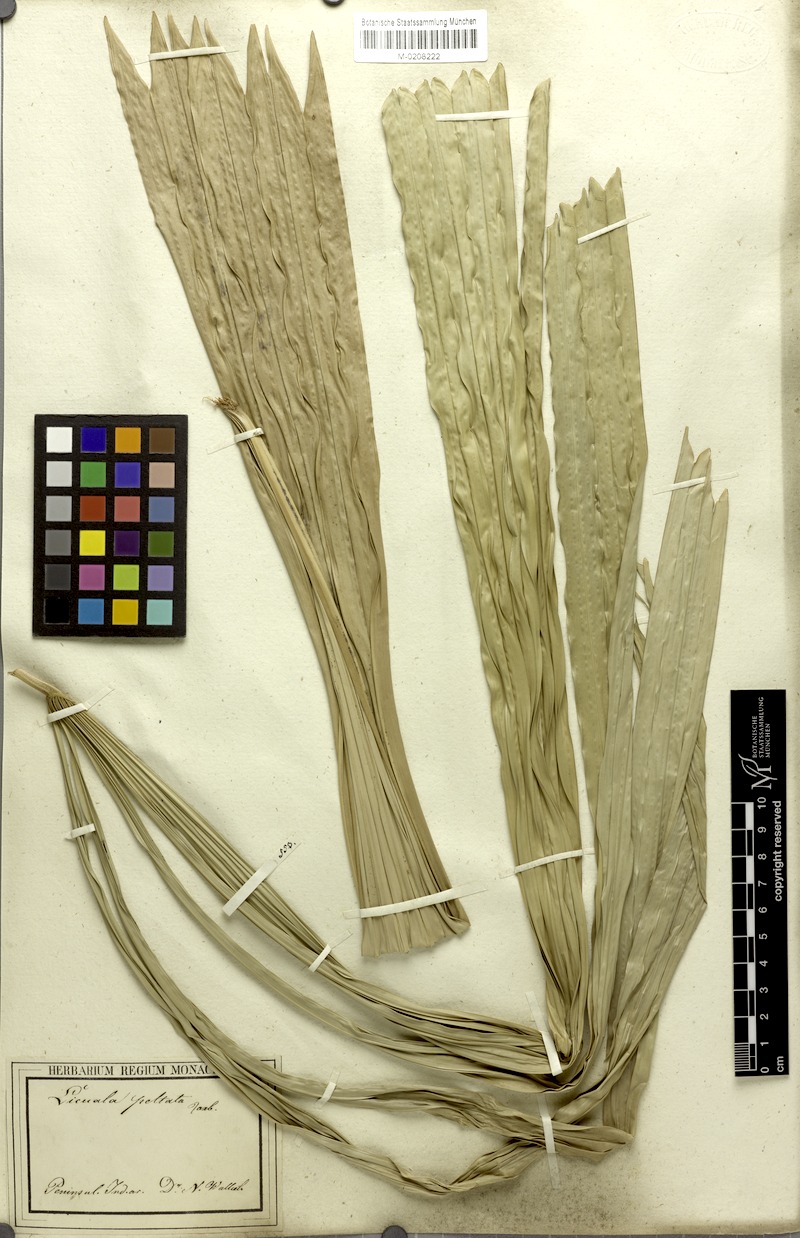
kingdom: Plantae
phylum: Tracheophyta
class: Liliopsida
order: Arecales
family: Arecaceae
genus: Licuala
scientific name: Licuala peltata
